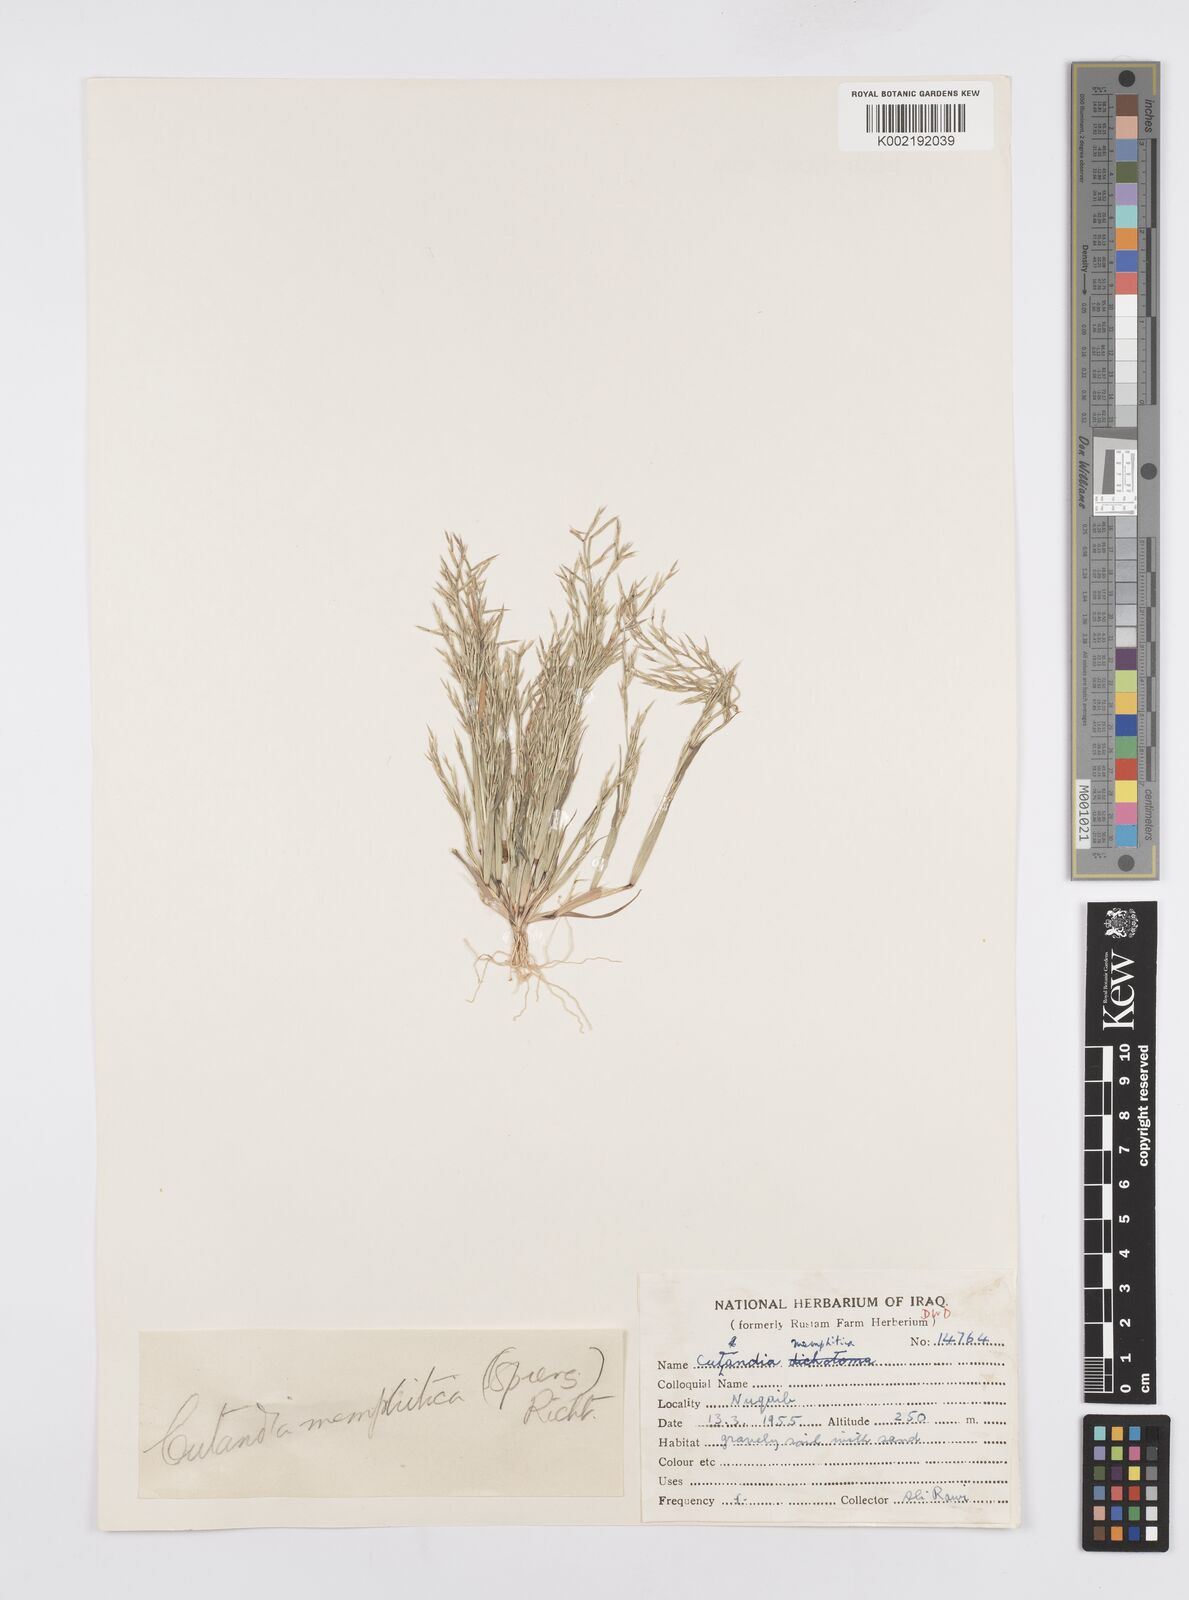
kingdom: Plantae
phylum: Tracheophyta
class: Liliopsida
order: Poales
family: Poaceae
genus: Cutandia
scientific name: Cutandia memphitica
